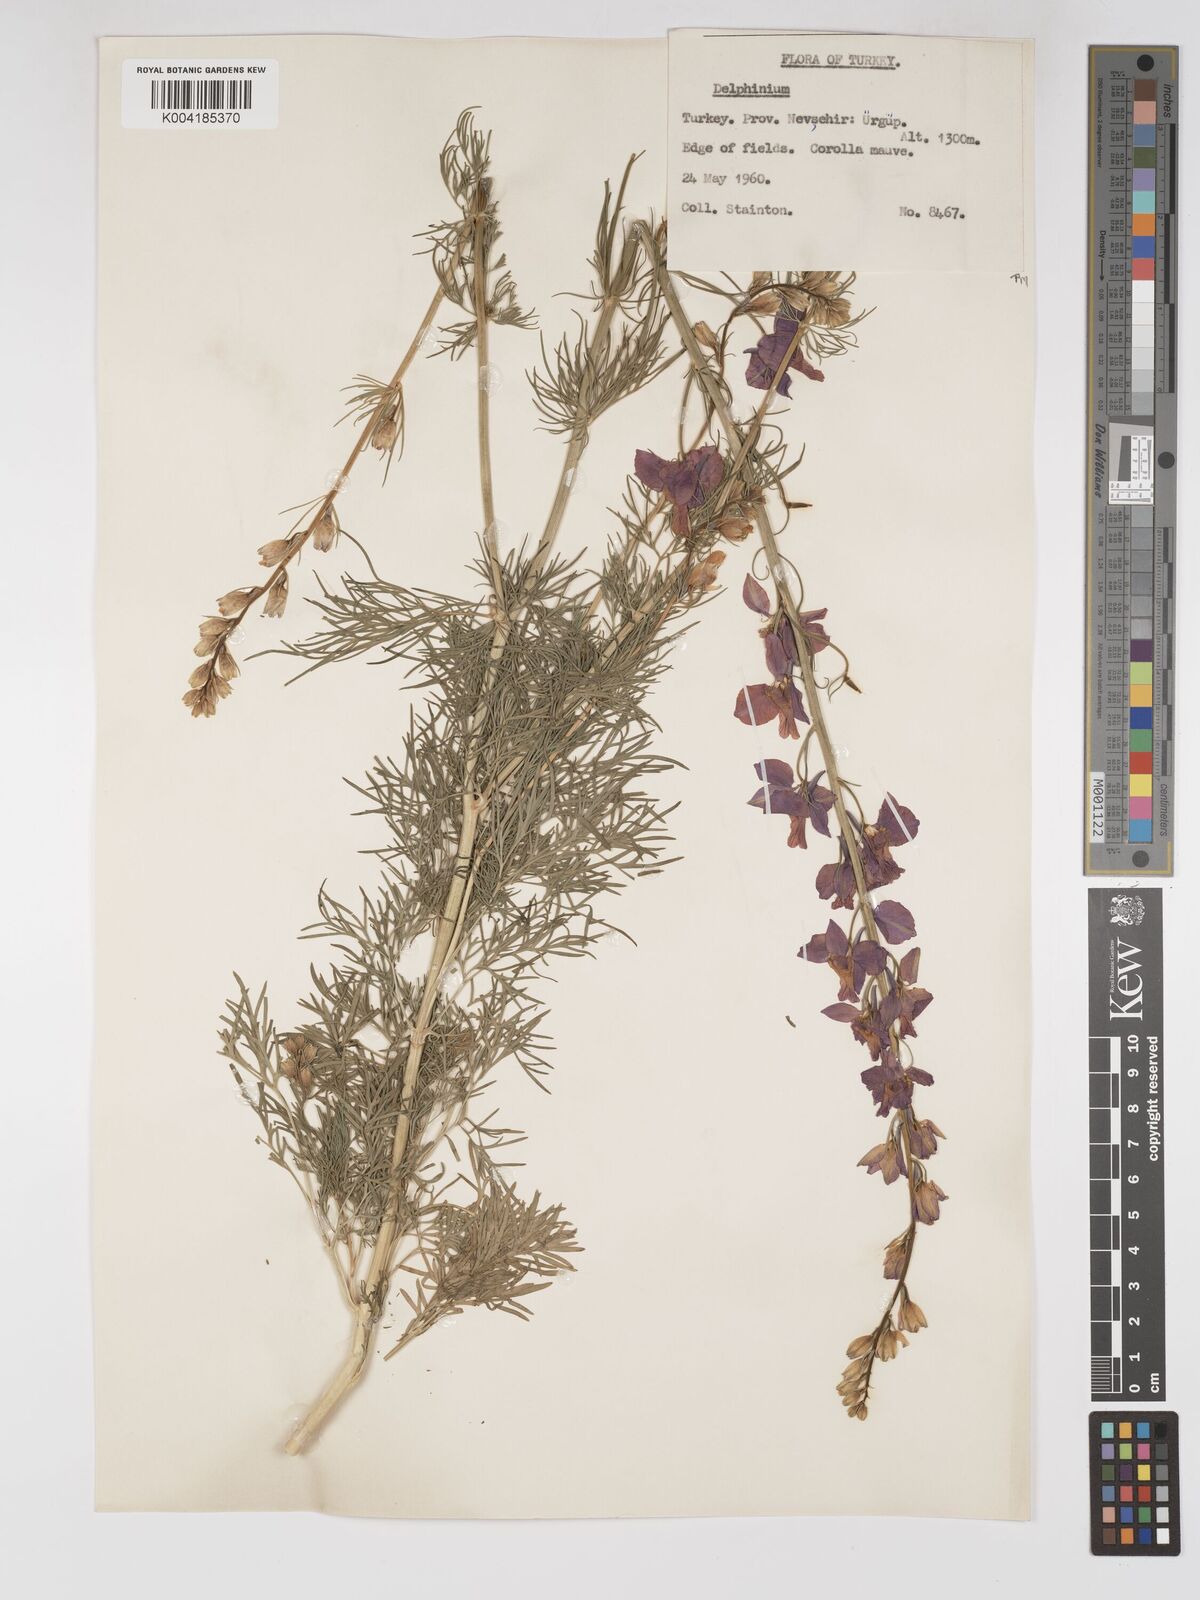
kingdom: Plantae
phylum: Tracheophyta
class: Magnoliopsida
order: Ranunculales
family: Ranunculaceae
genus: Delphinium
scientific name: Delphinium
